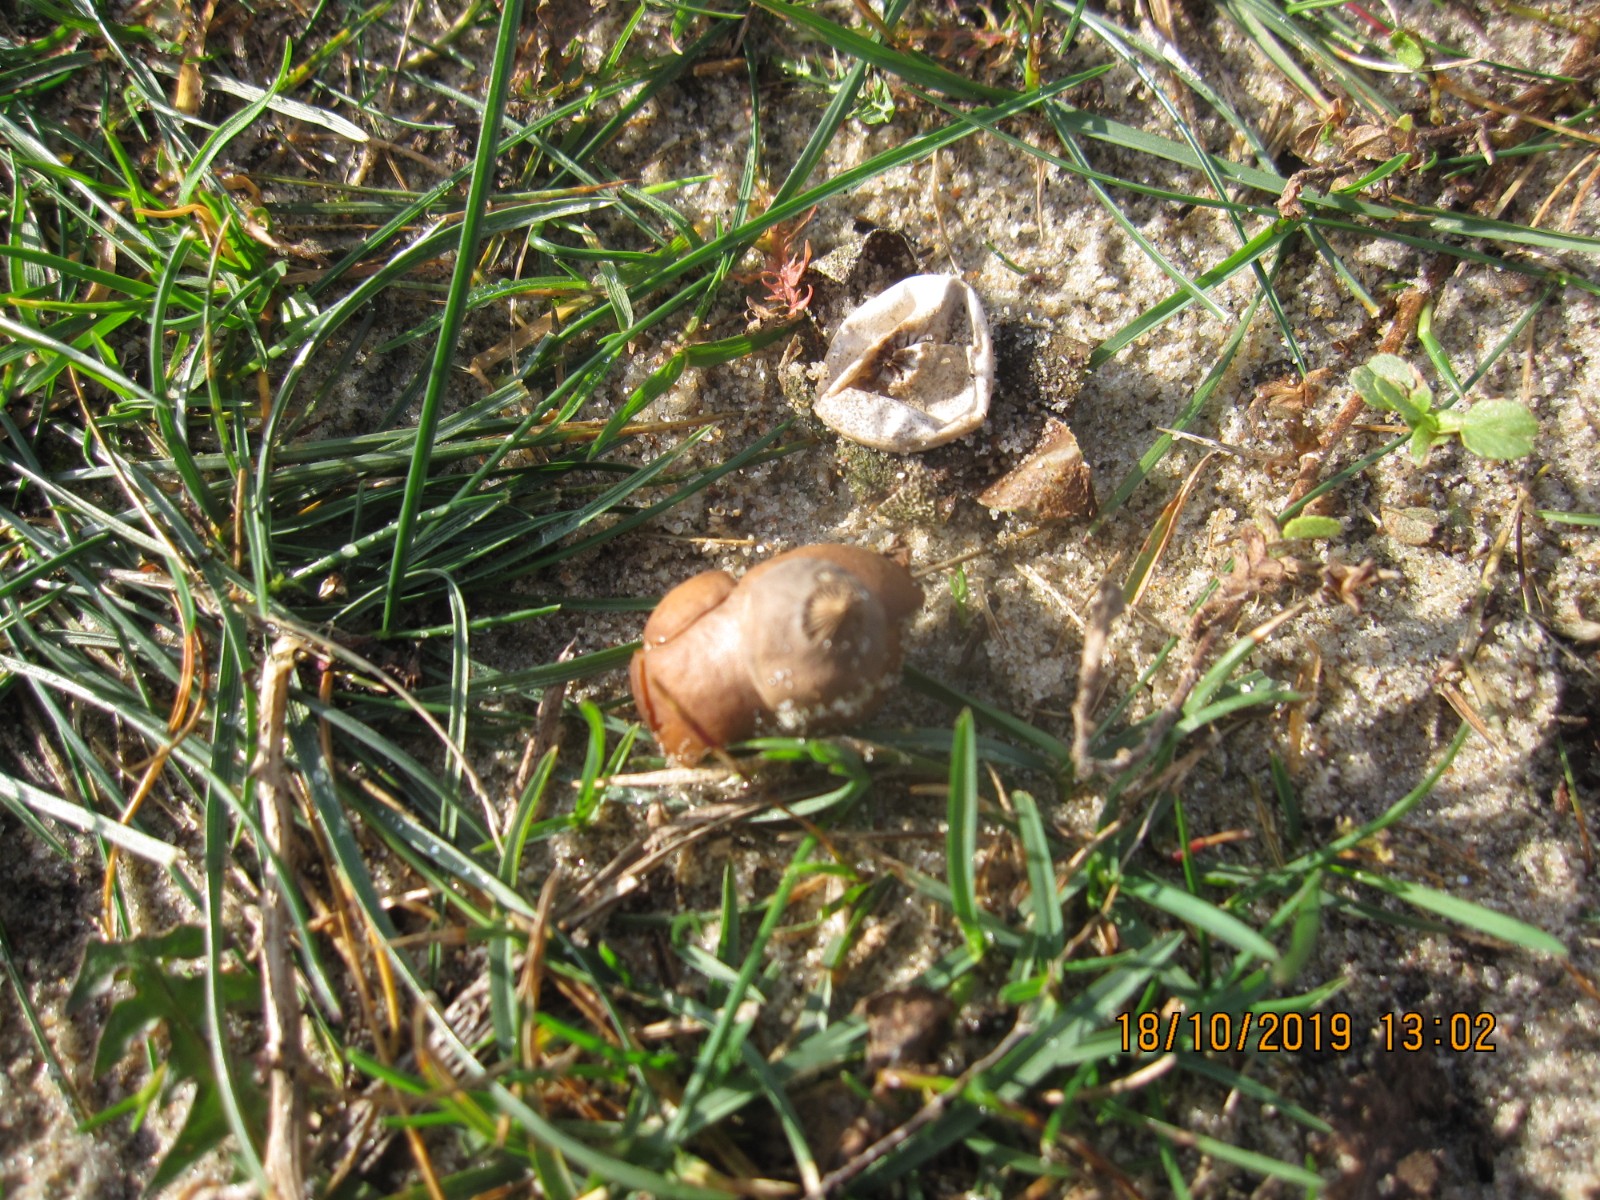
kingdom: Fungi
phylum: Basidiomycota
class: Agaricomycetes
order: Geastrales
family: Geastraceae
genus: Geastrum
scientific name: Geastrum striatum
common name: dværg-stjernebold
